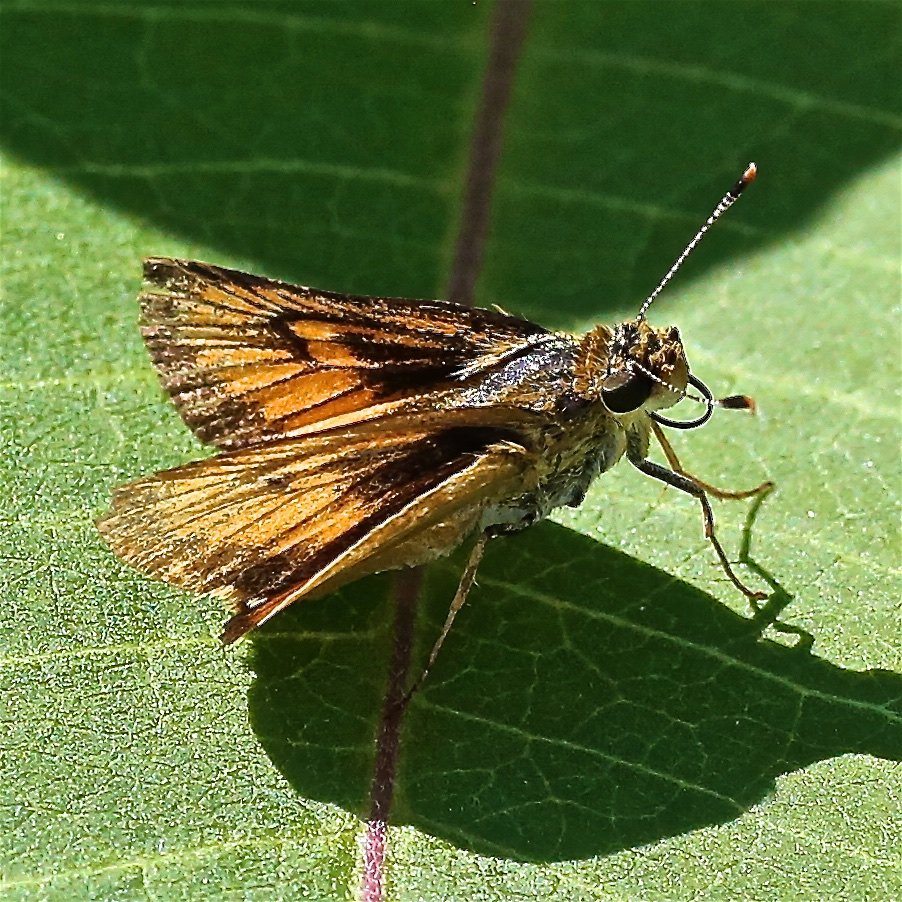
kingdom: Animalia
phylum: Arthropoda
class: Insecta
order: Lepidoptera
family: Hesperiidae
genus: Atrytone
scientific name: Atrytone delaware
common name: Delaware Skipper
